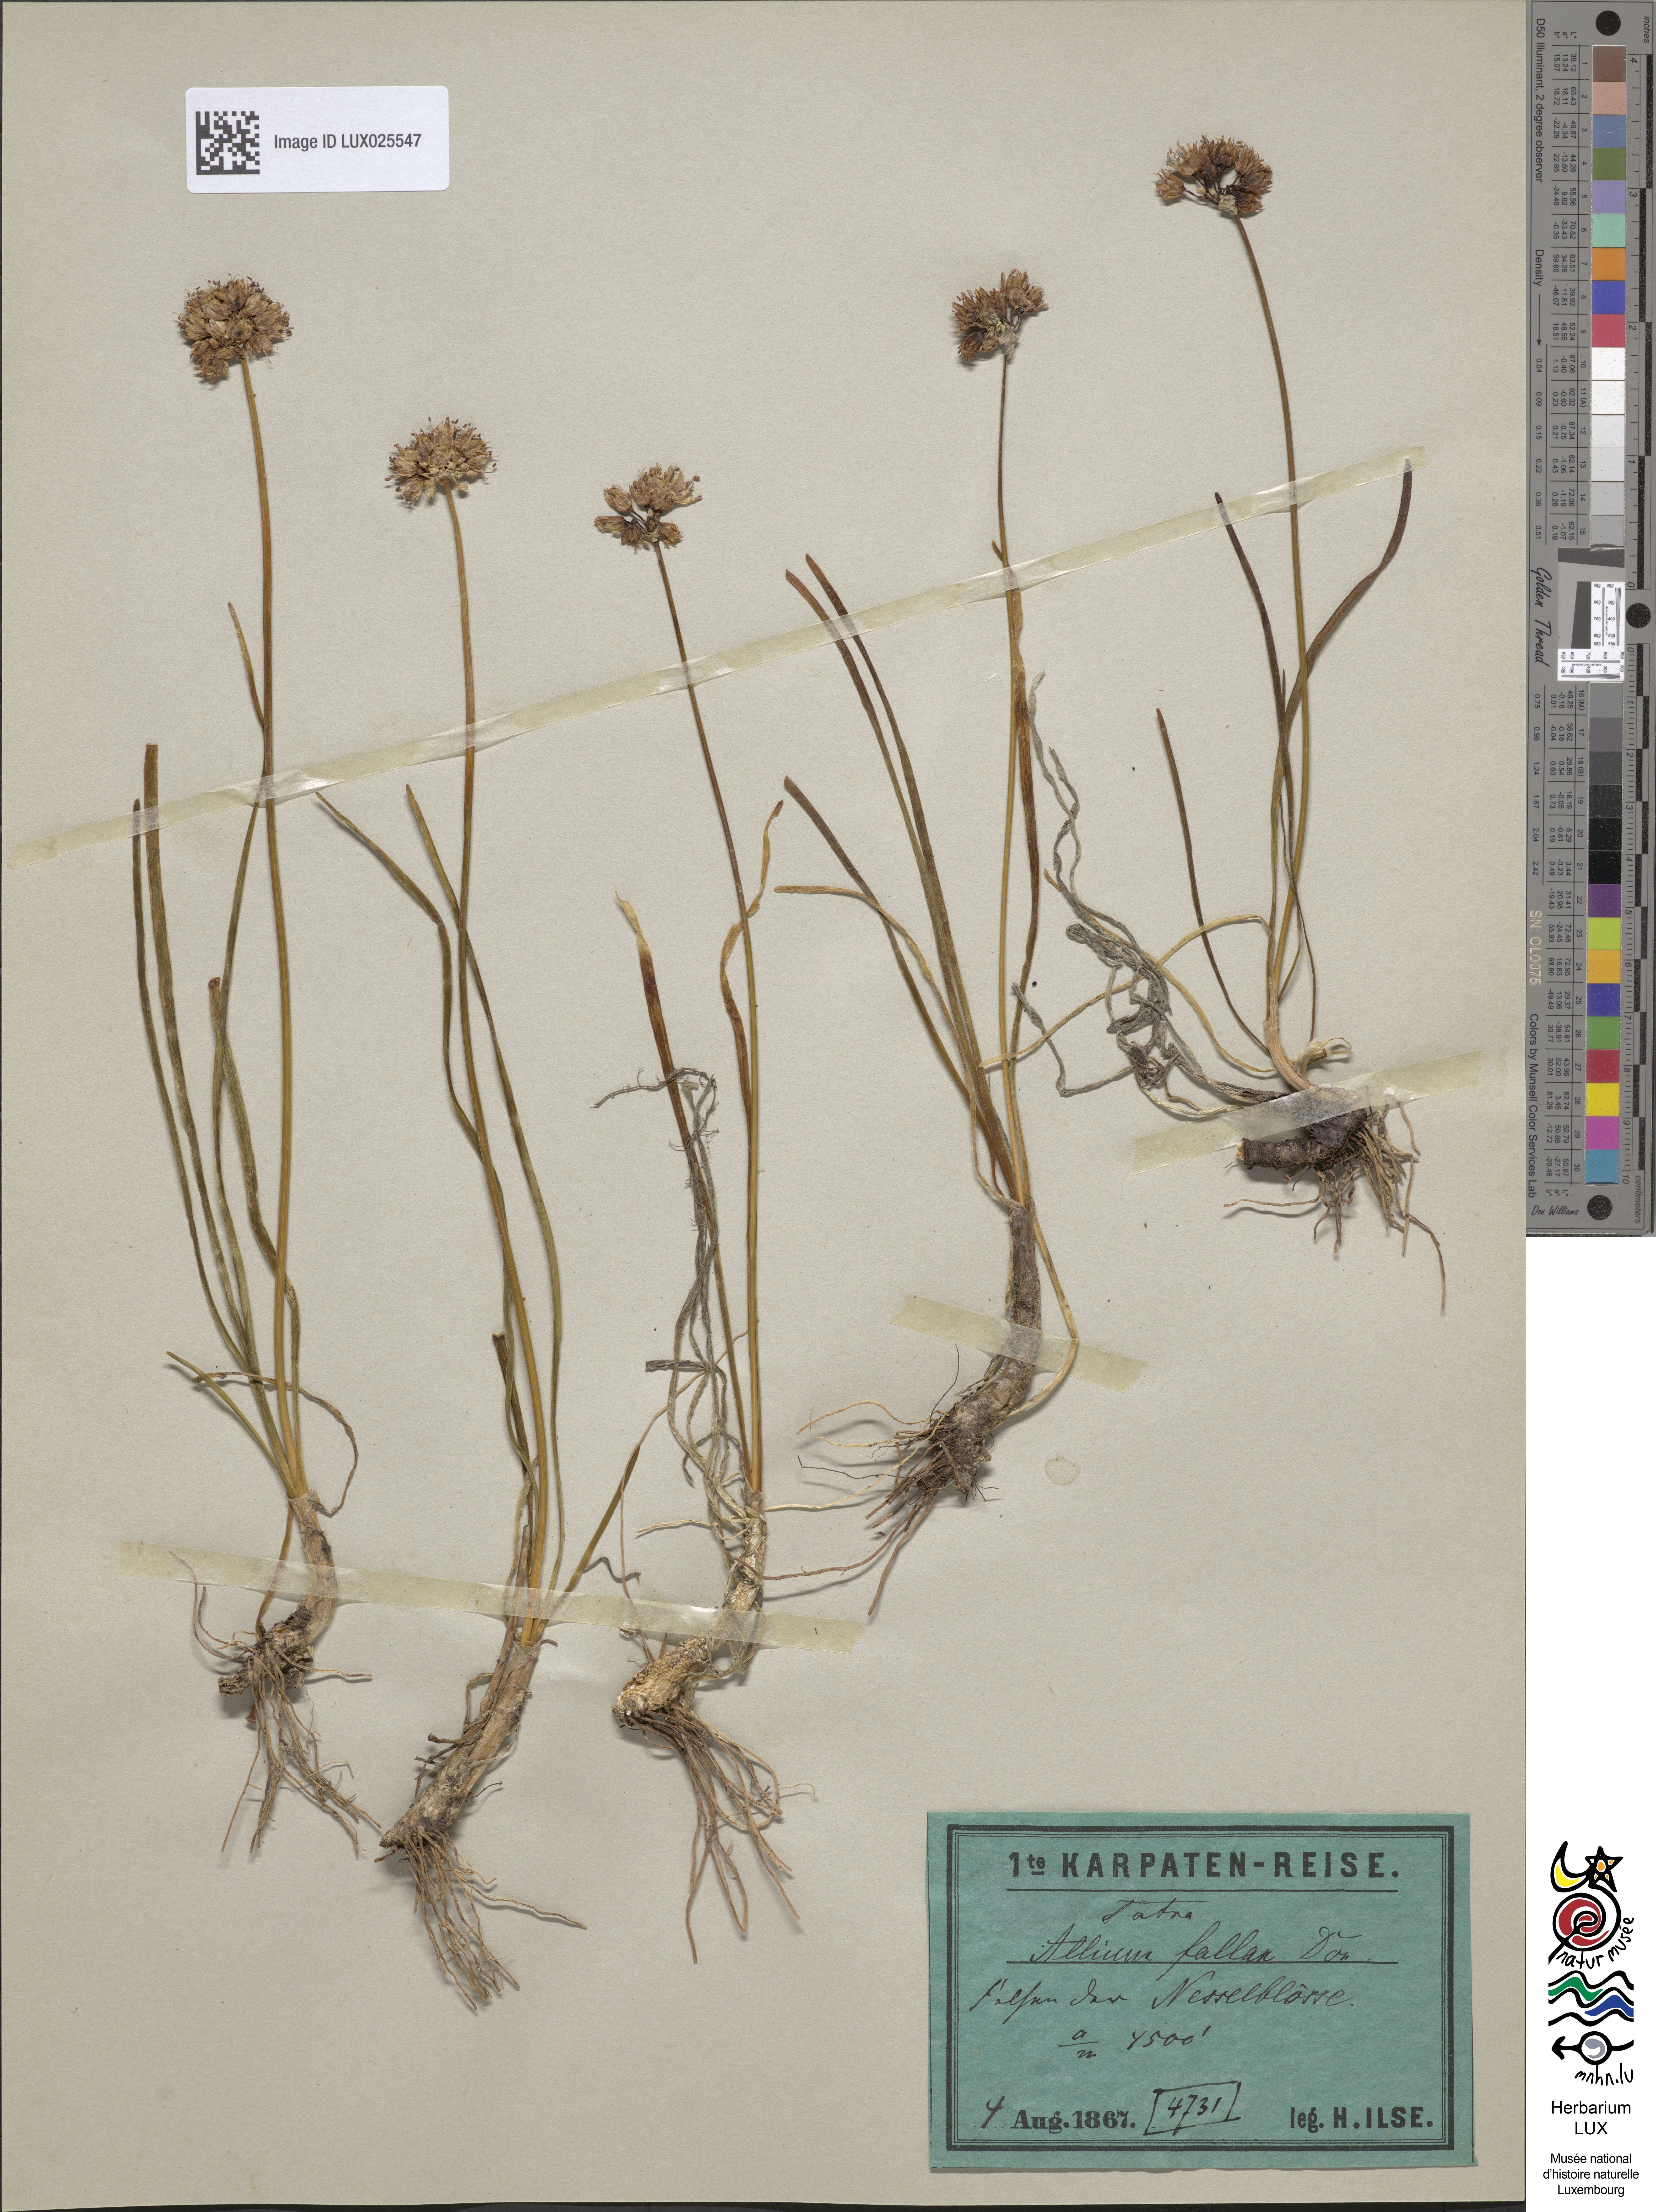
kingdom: Plantae
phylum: Tracheophyta
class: Liliopsida
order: Asparagales
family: Amaryllidaceae
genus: Allium
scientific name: Allium lusitanicum
